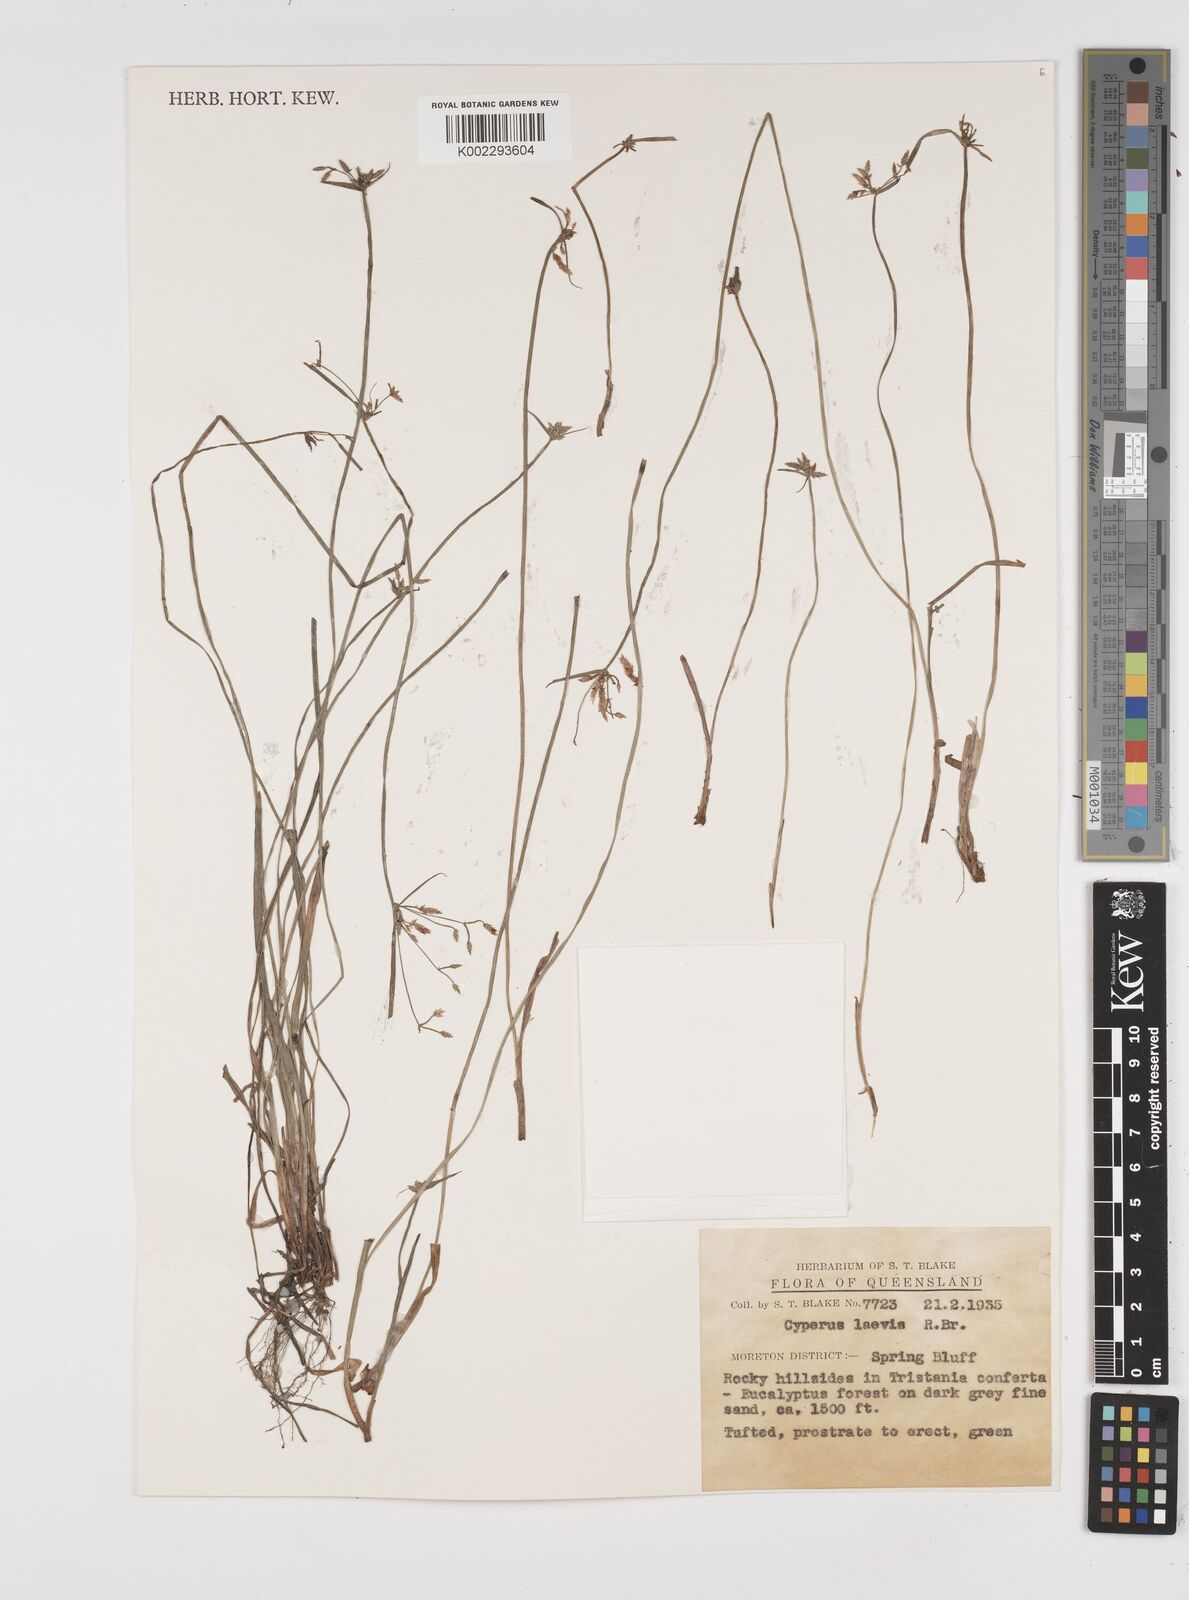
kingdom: Plantae
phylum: Tracheophyta
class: Liliopsida
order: Poales
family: Cyperaceae
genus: Cyperus
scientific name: Cyperus laevis
